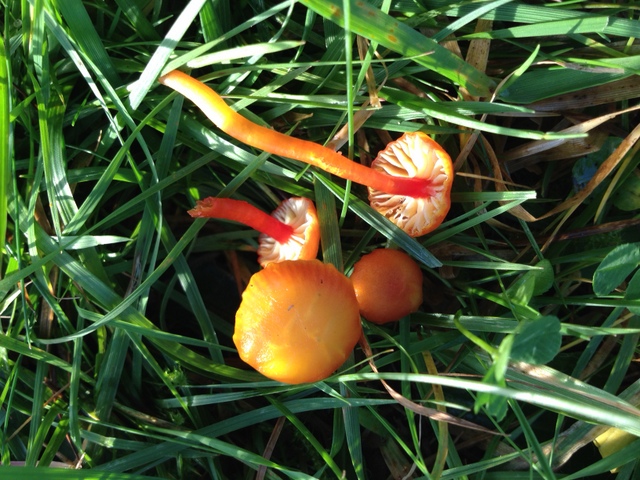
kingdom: Fungi
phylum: Basidiomycota
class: Agaricomycetes
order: Agaricales
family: Hygrophoraceae
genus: Hygrocybe
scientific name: Hygrocybe insipida
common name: liden vokshat
